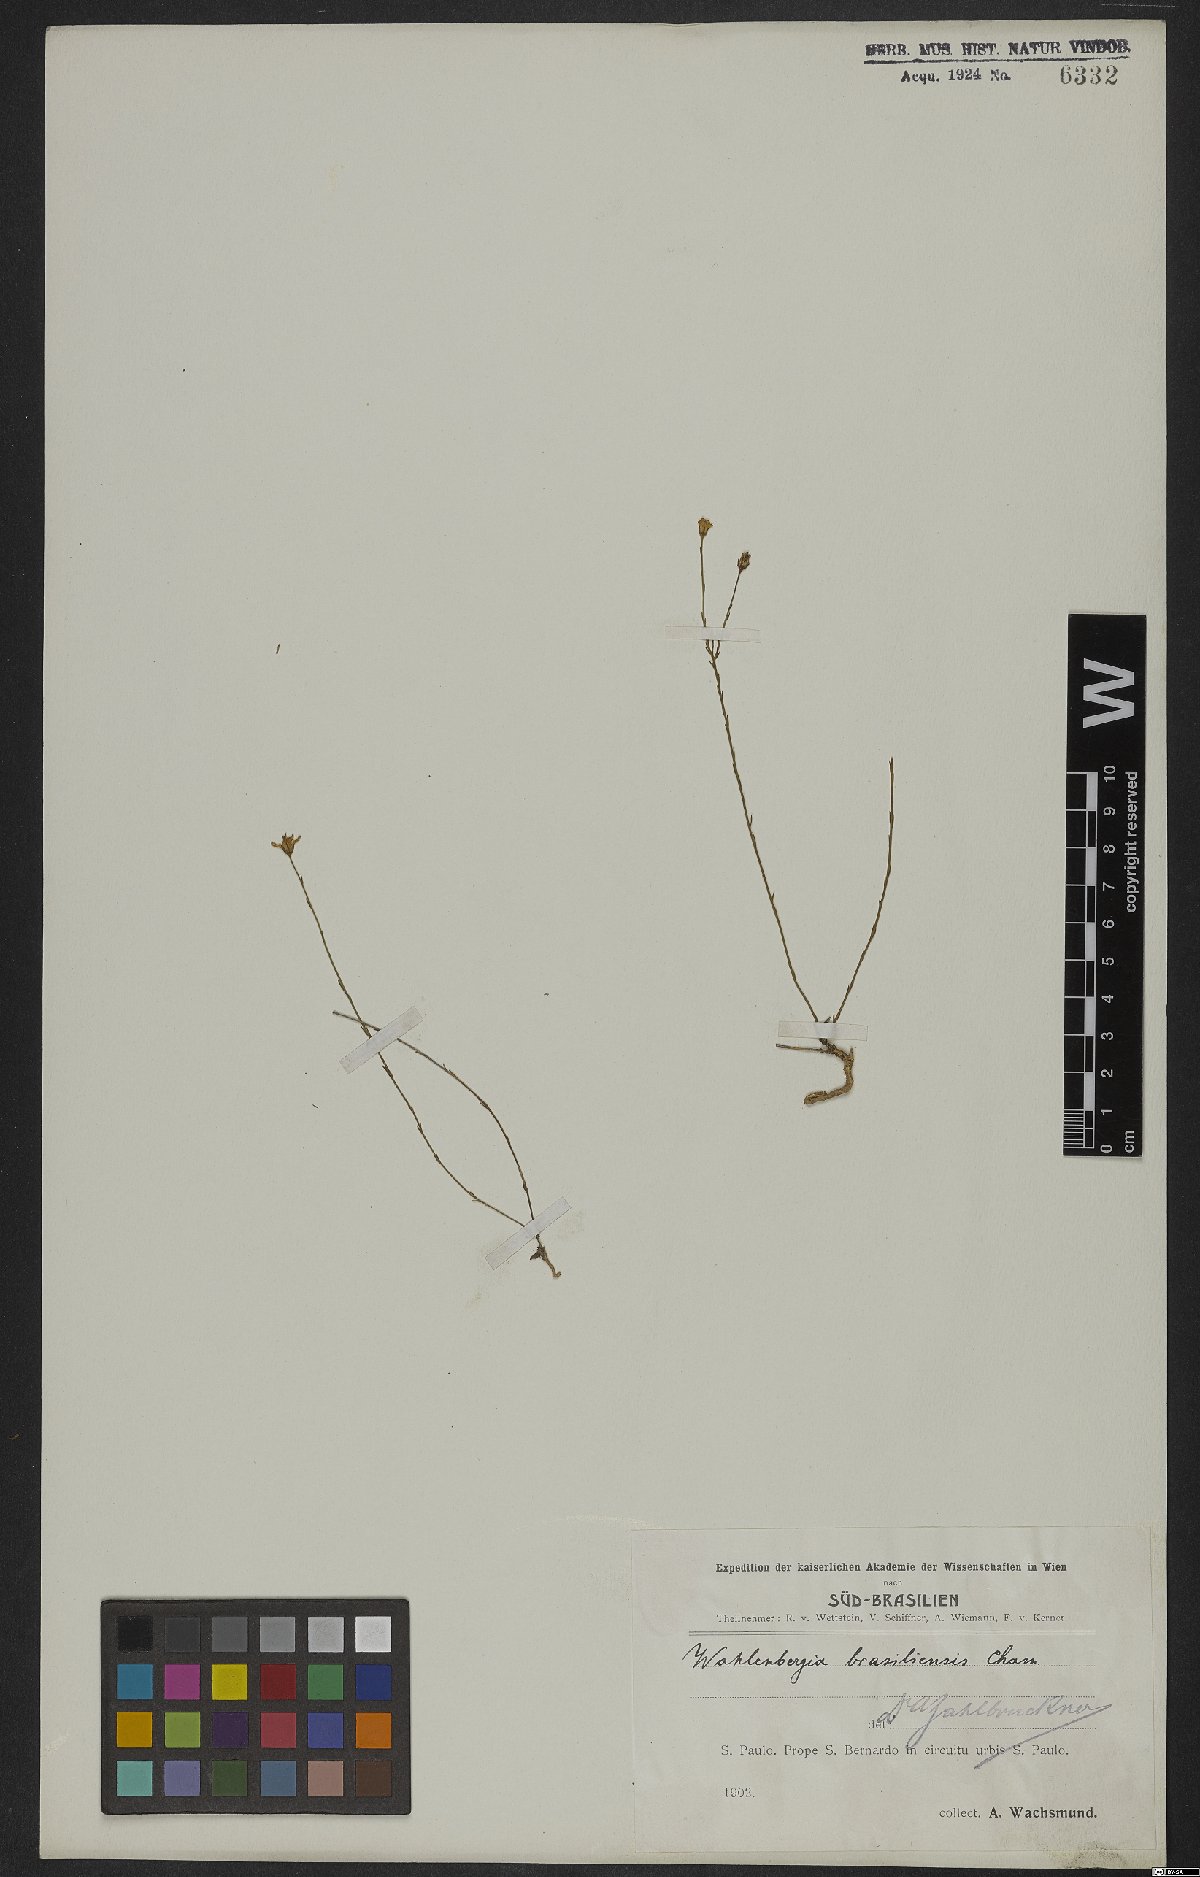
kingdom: Plantae
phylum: Tracheophyta
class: Magnoliopsida
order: Asterales
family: Campanulaceae
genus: Wahlenbergia
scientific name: Wahlenbergia brasiliensis
